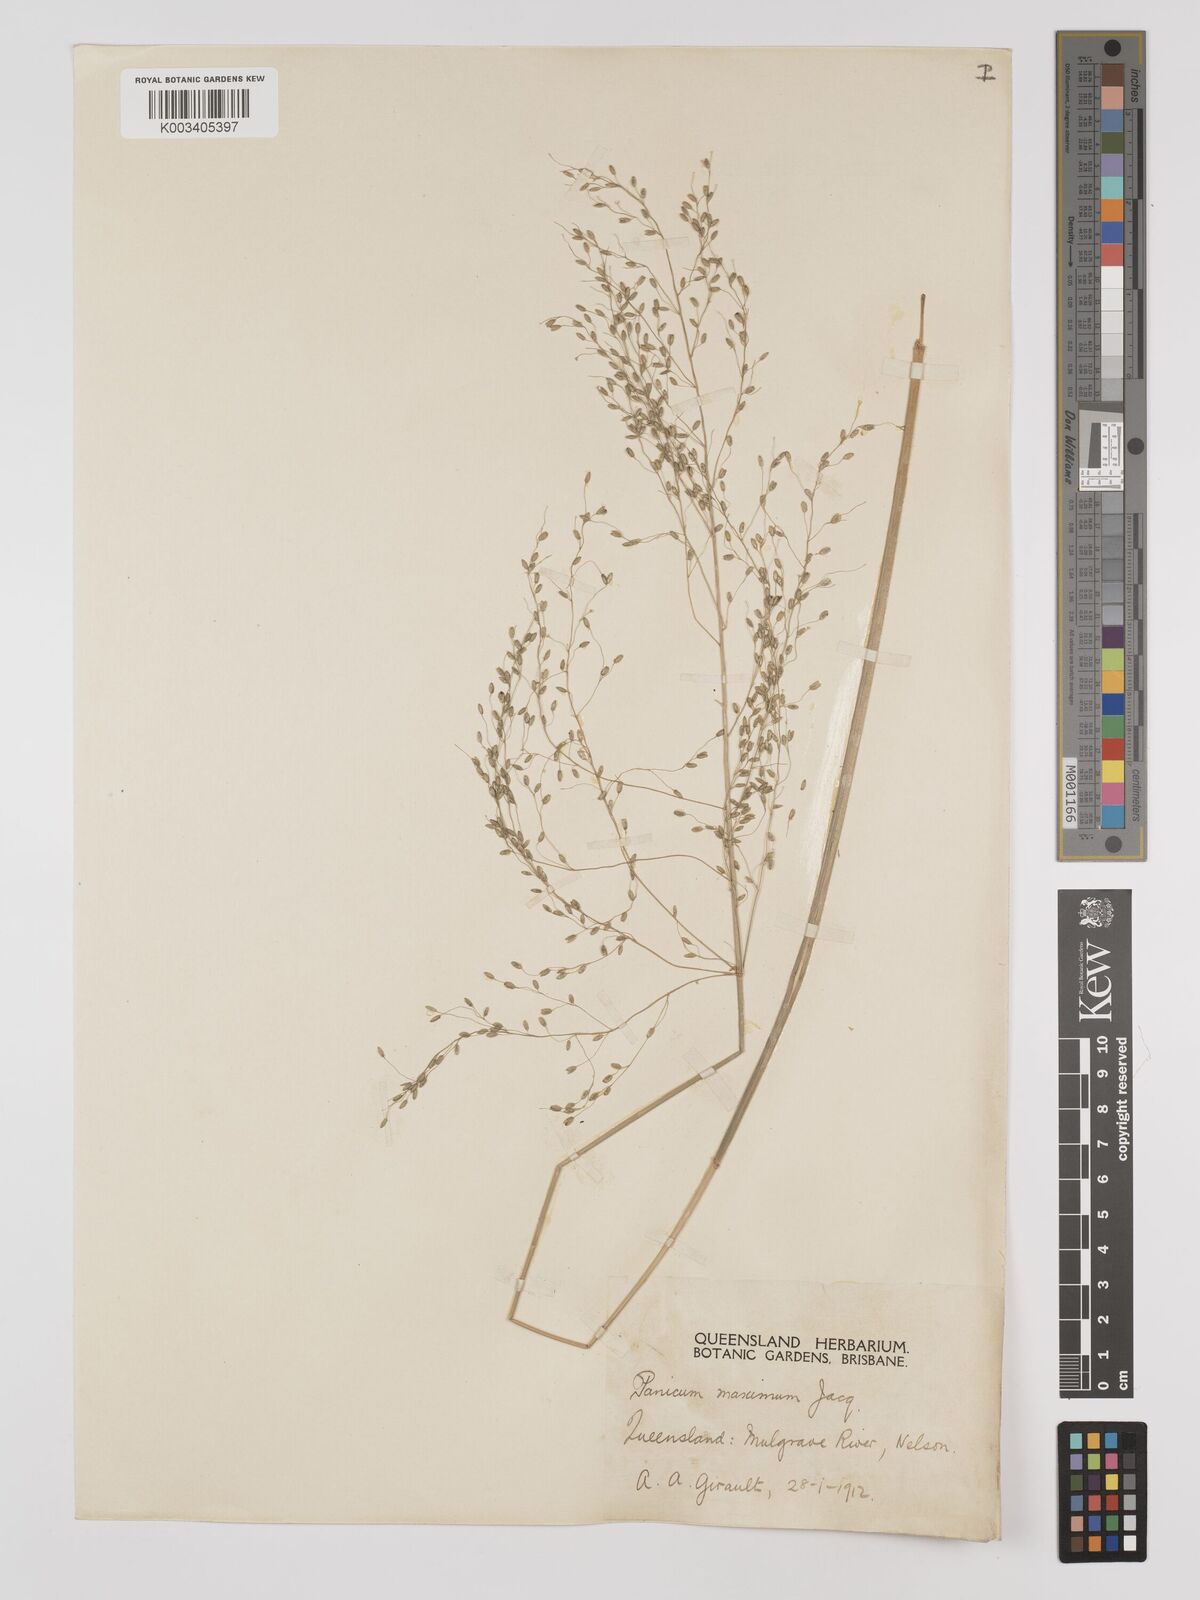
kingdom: Plantae
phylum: Tracheophyta
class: Liliopsida
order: Poales
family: Poaceae
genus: Megathyrsus
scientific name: Megathyrsus maximus
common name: Guineagrass
